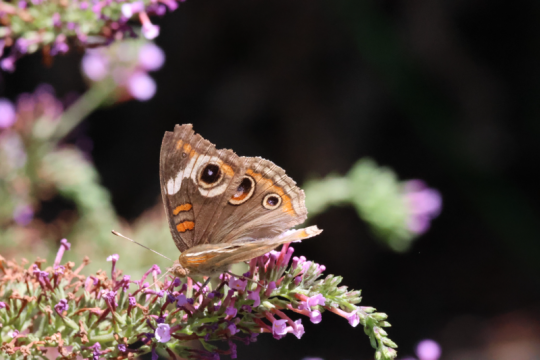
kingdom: Animalia
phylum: Arthropoda
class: Insecta
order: Lepidoptera
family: Nymphalidae
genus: Junonia
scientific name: Junonia coenia
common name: Common Buckeye
